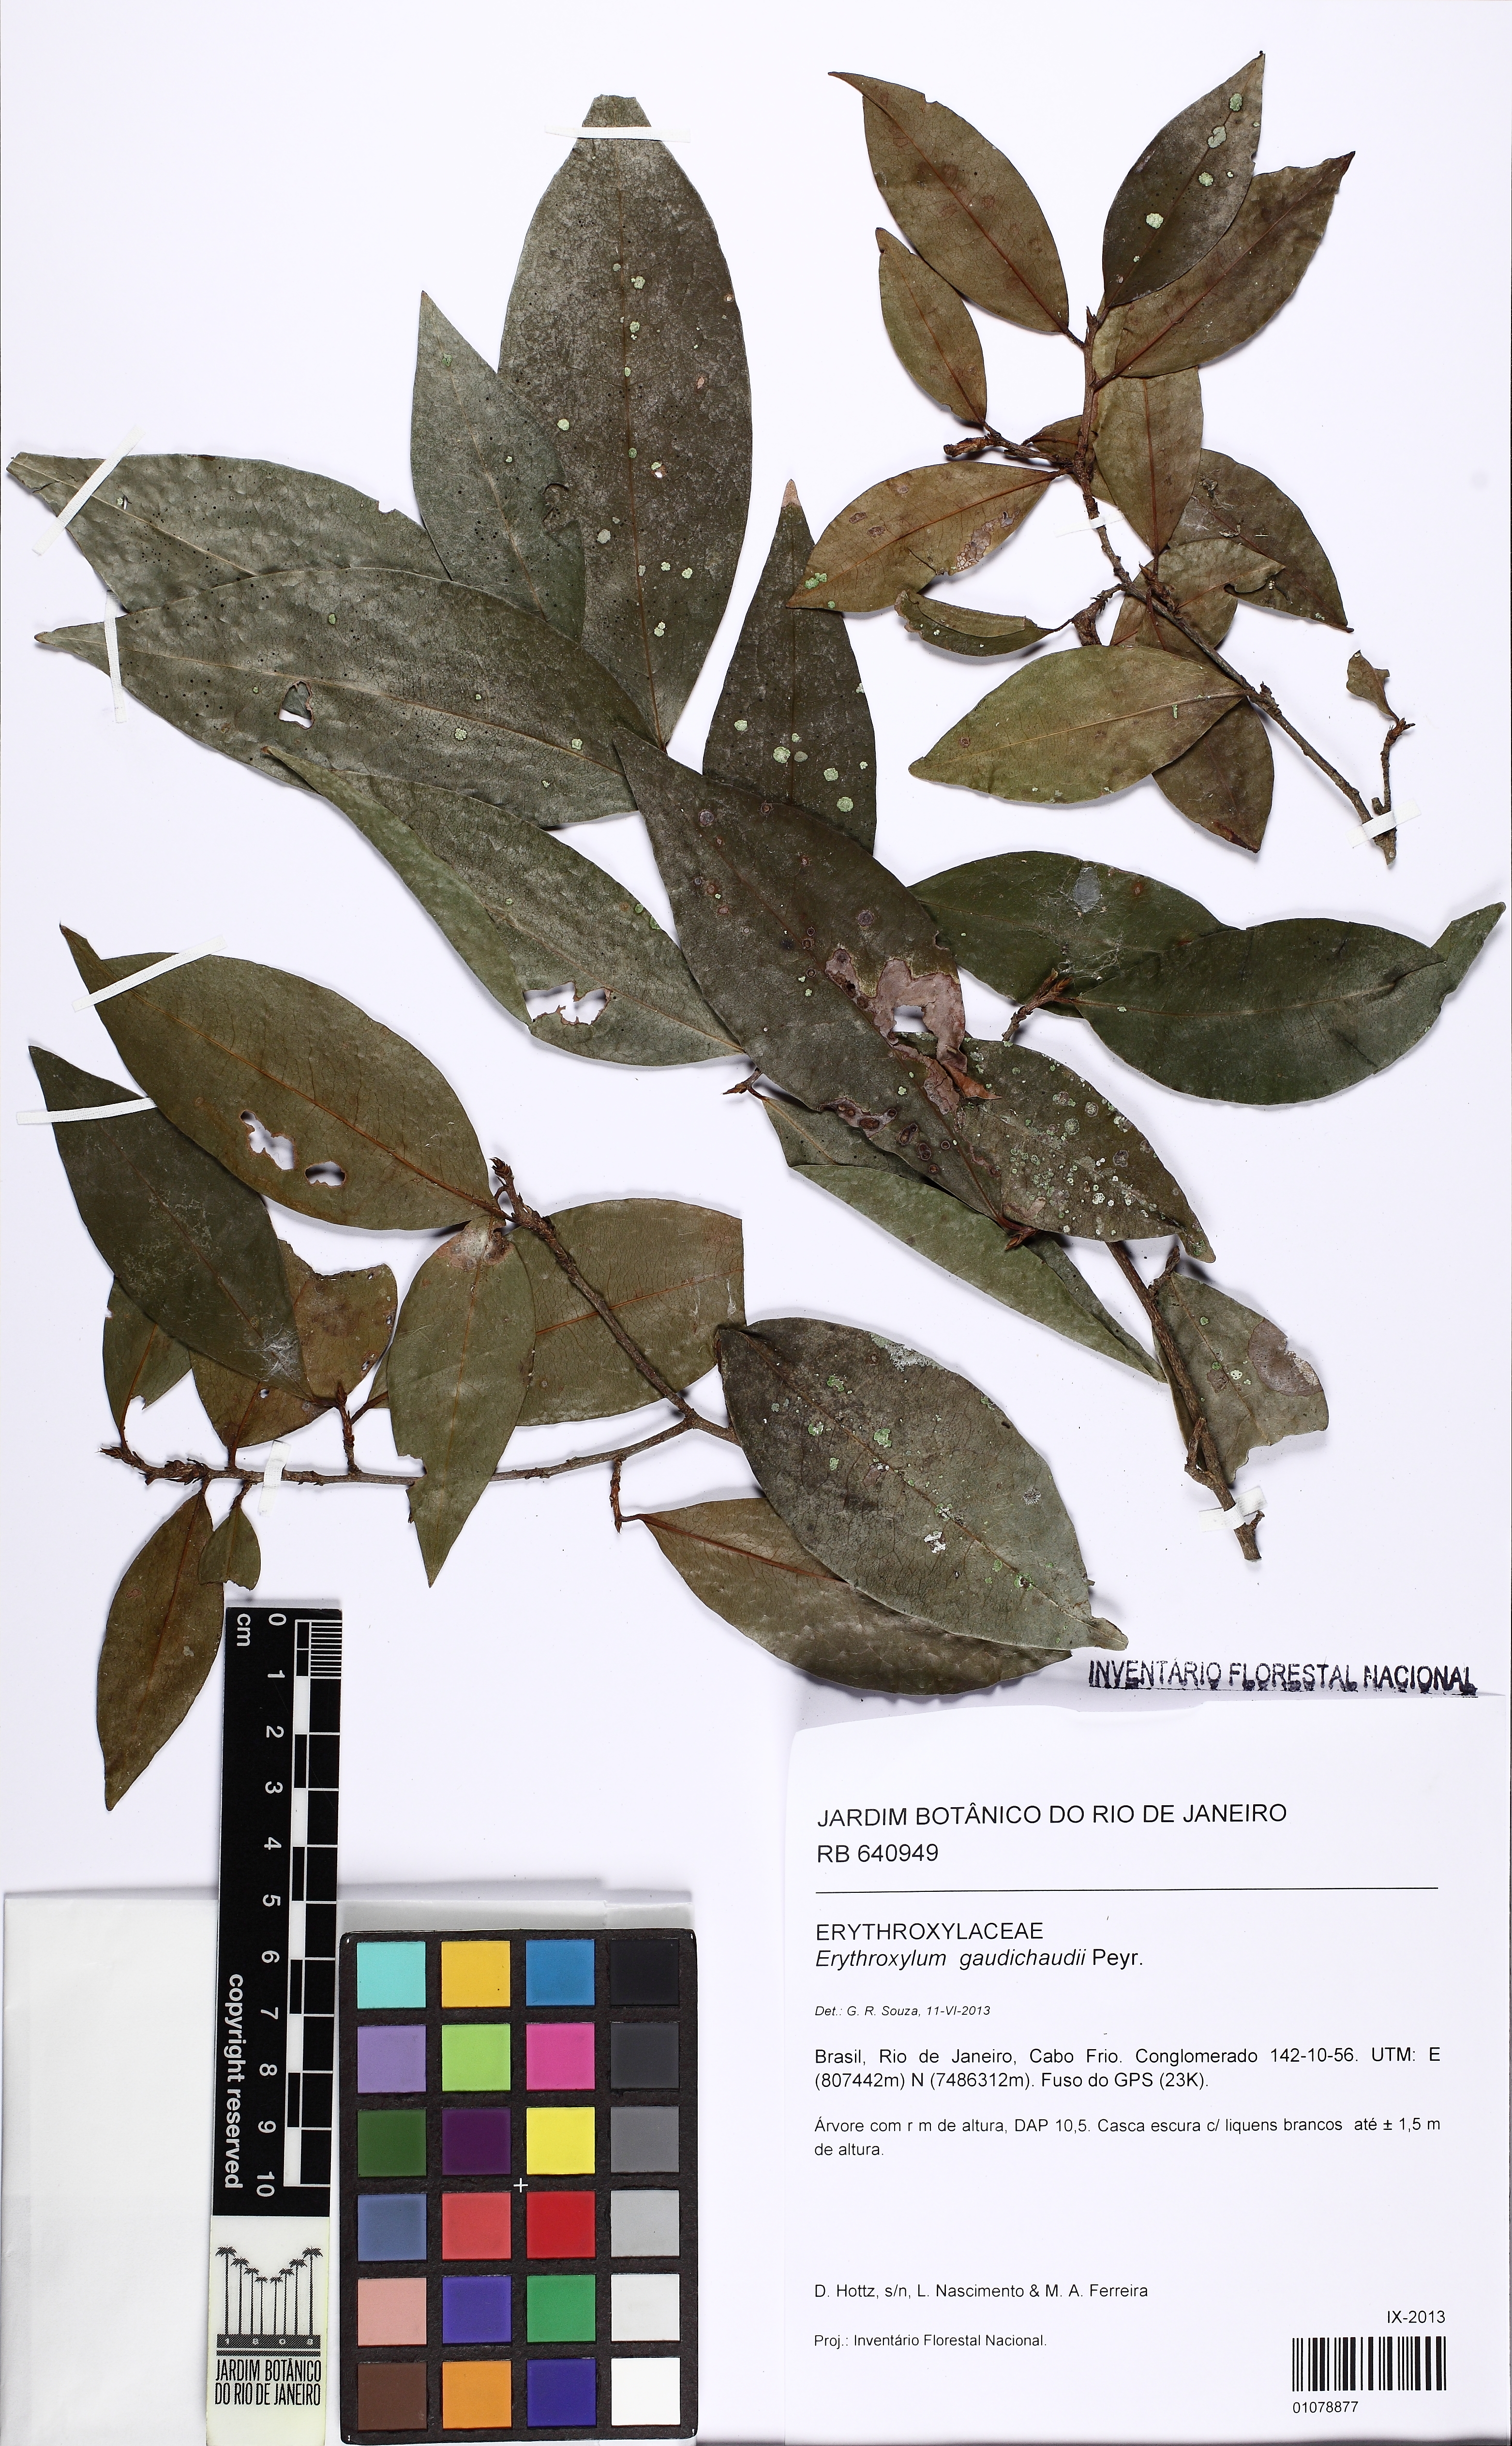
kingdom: Plantae
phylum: Tracheophyta
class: Magnoliopsida
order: Malpighiales
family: Erythroxylaceae
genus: Erythroxylum
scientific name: Erythroxylum gaudichaudii
